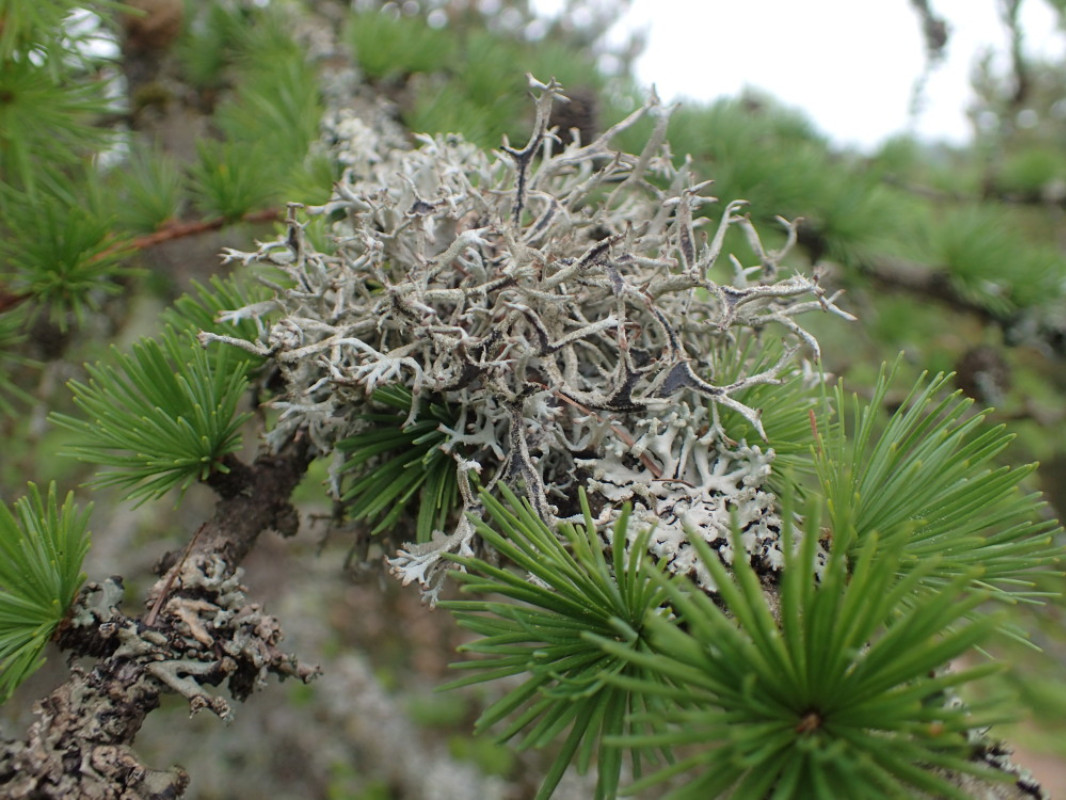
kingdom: Fungi
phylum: Ascomycota
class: Lecanoromycetes
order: Lecanorales
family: Parmeliaceae
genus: Pseudevernia
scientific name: Pseudevernia furfuracea
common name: grå fyrrelav
